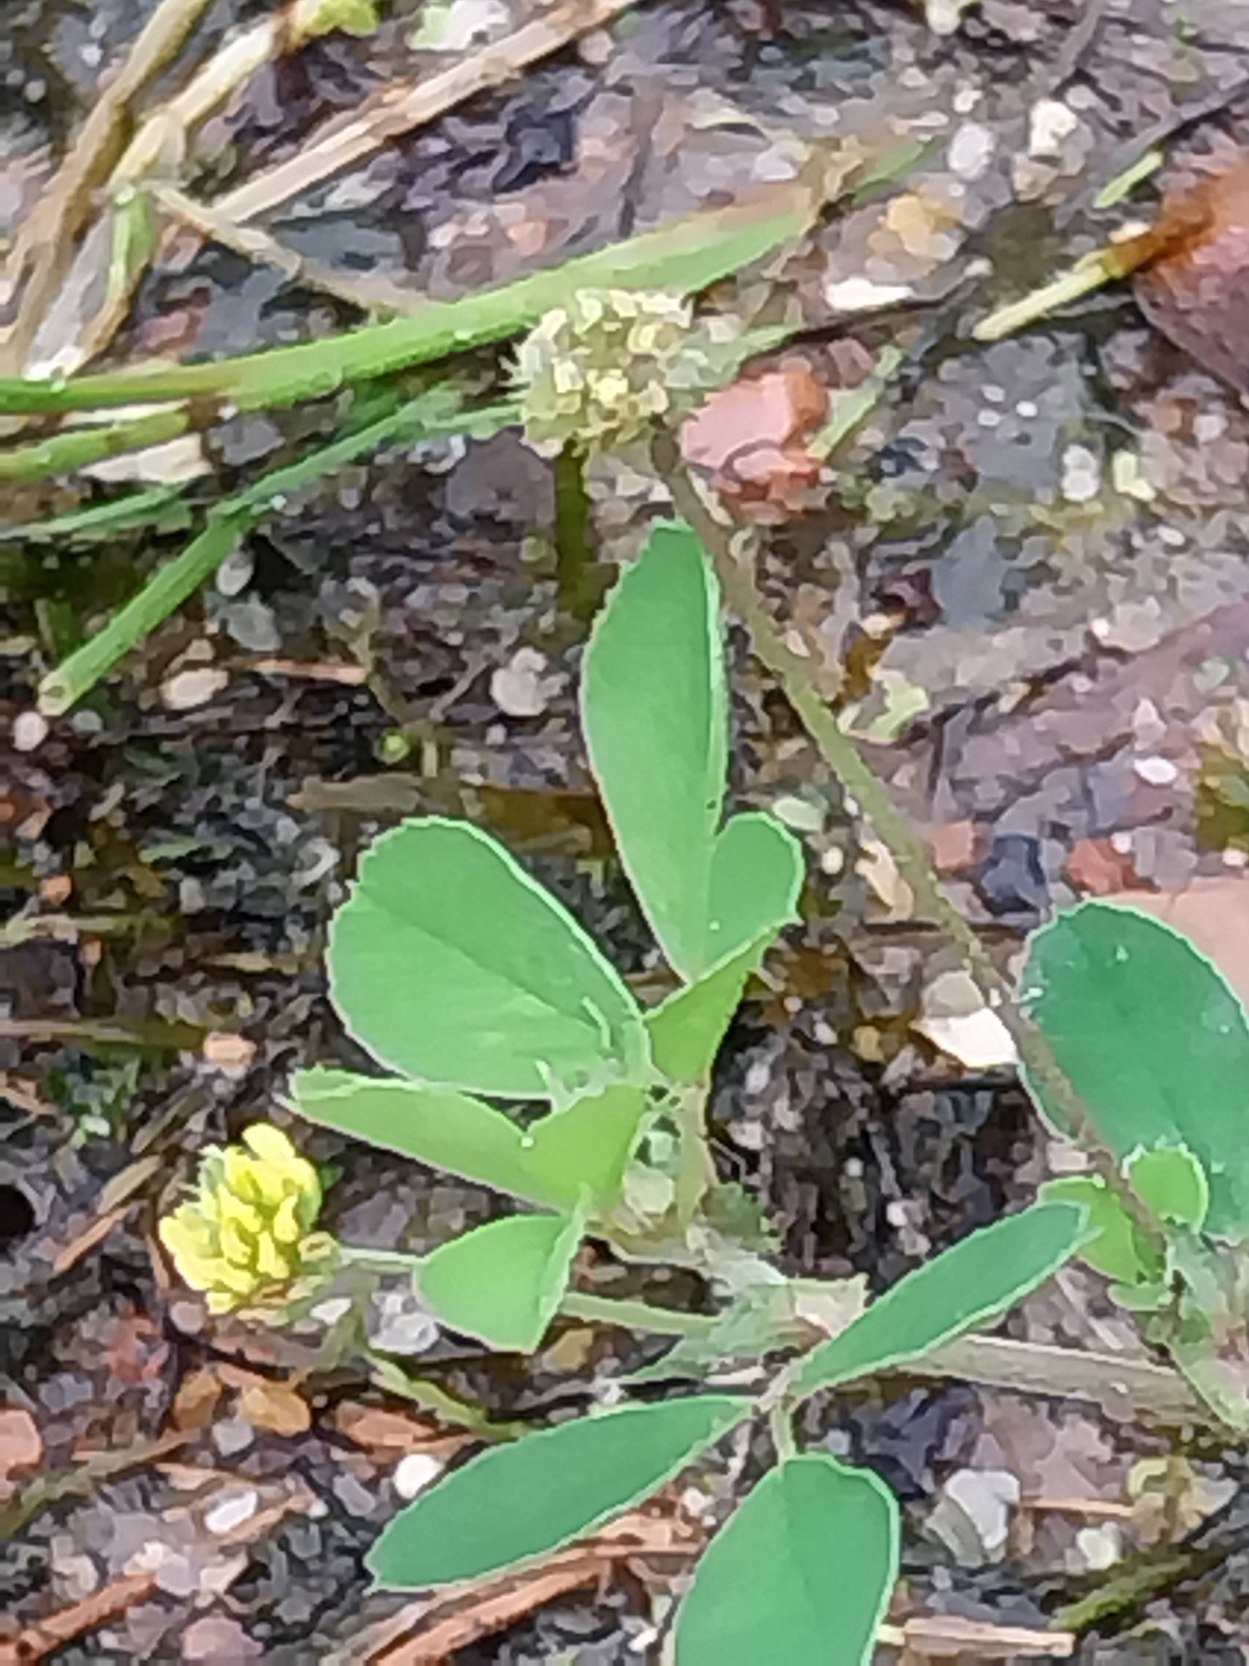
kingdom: Plantae
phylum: Tracheophyta
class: Magnoliopsida
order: Fabales
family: Fabaceae
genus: Medicago
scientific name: Medicago lupulina
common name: Humle-sneglebælg
